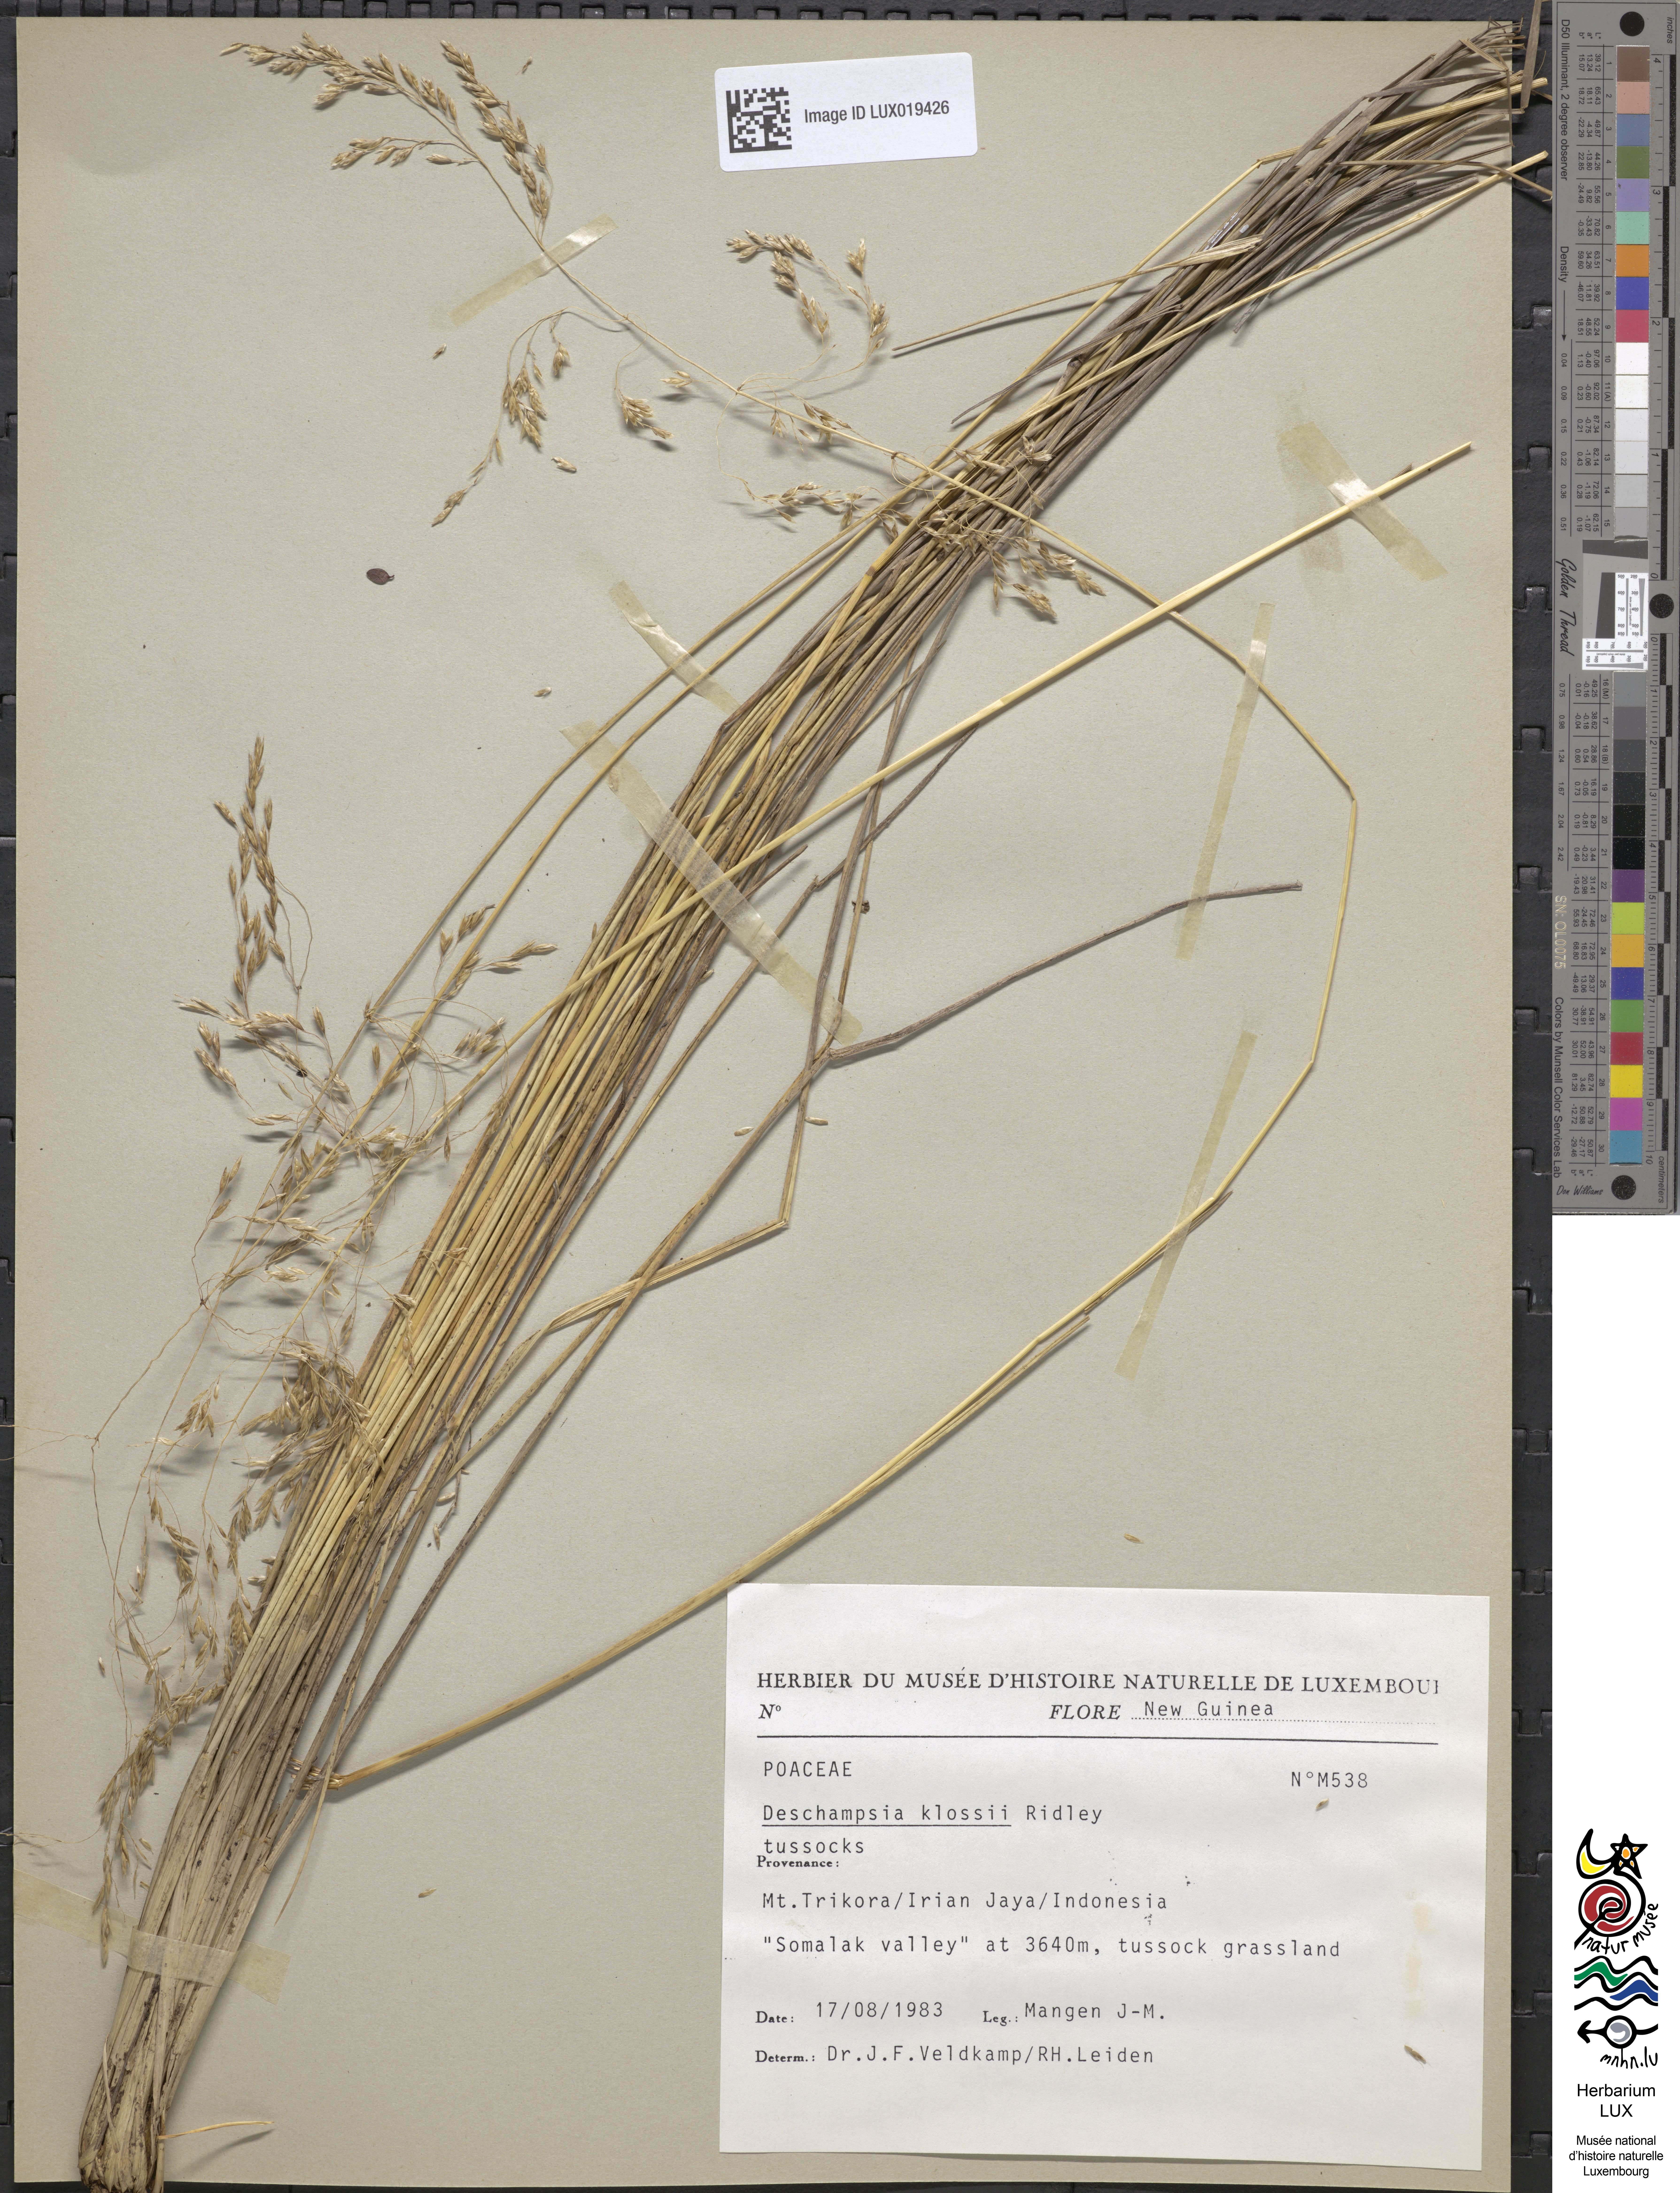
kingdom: Plantae
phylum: Tracheophyta
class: Liliopsida
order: Poales
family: Poaceae
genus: Deschampsia
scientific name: Deschampsia klossii
